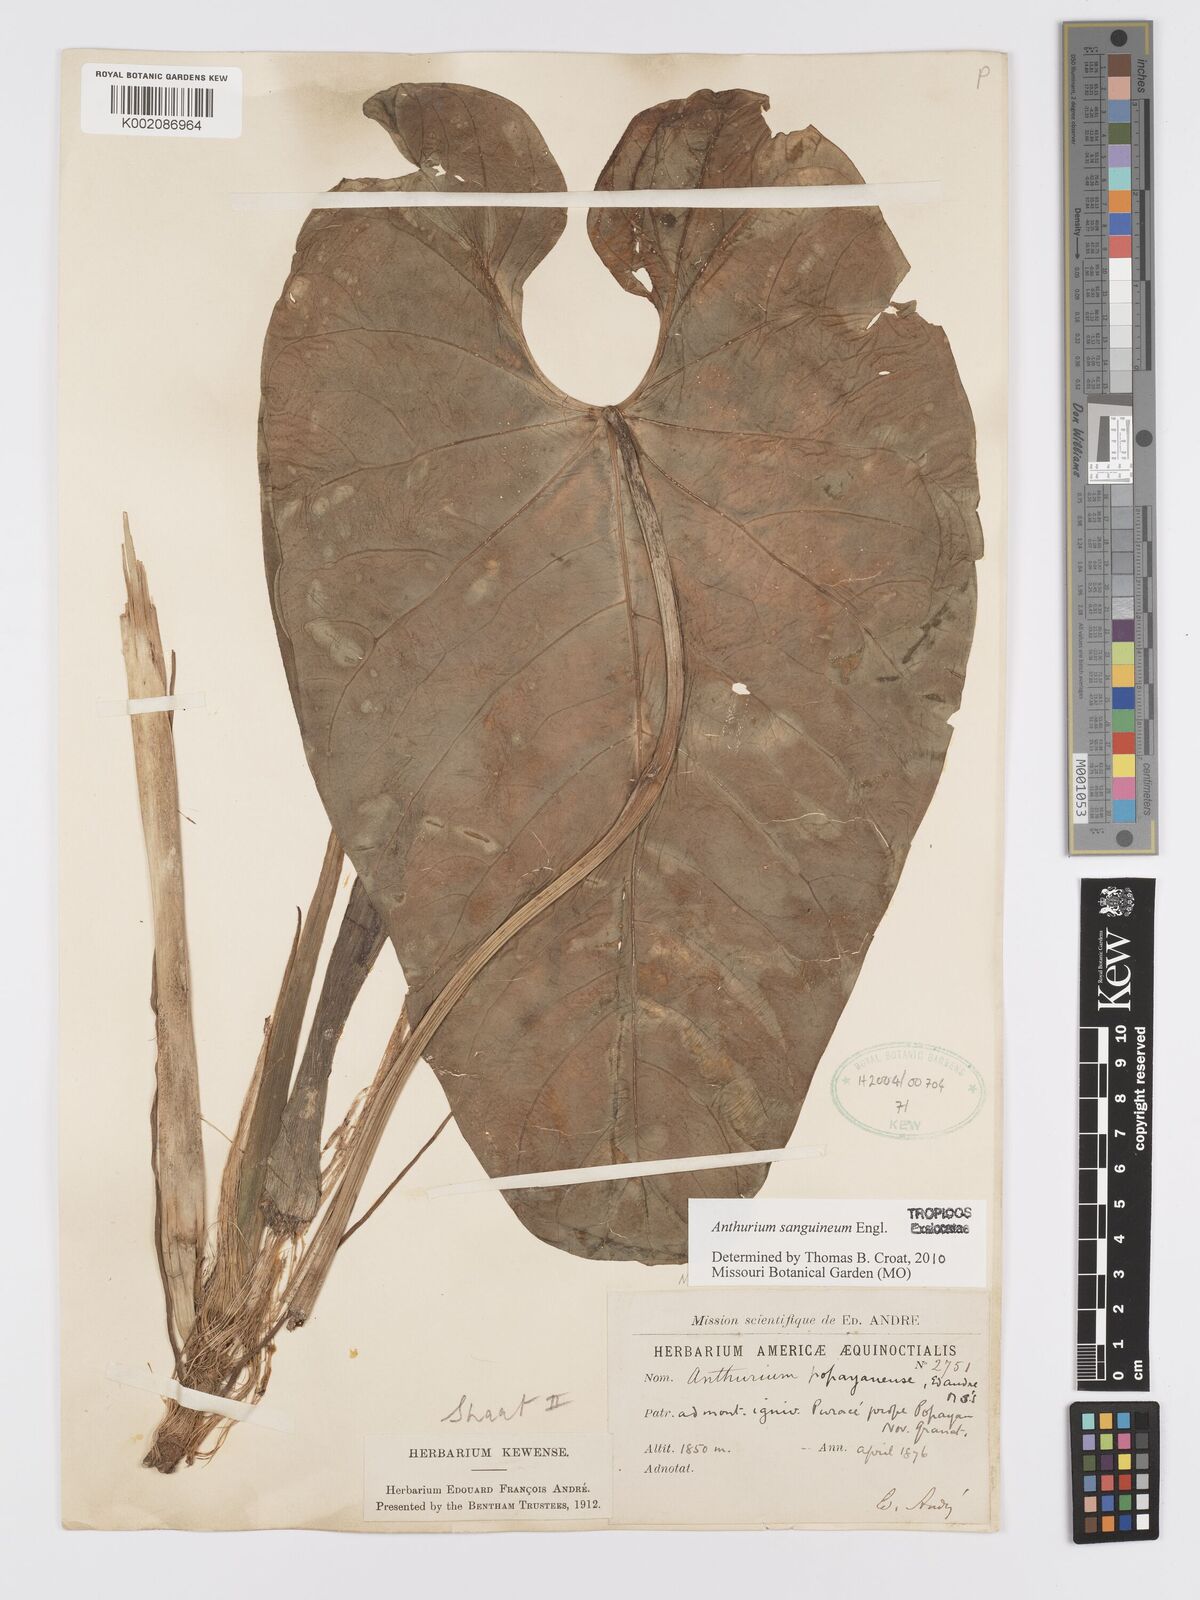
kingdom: Plantae
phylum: Tracheophyta
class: Liliopsida
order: Alismatales
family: Araceae
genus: Anthurium
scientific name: Anthurium sanguineum
